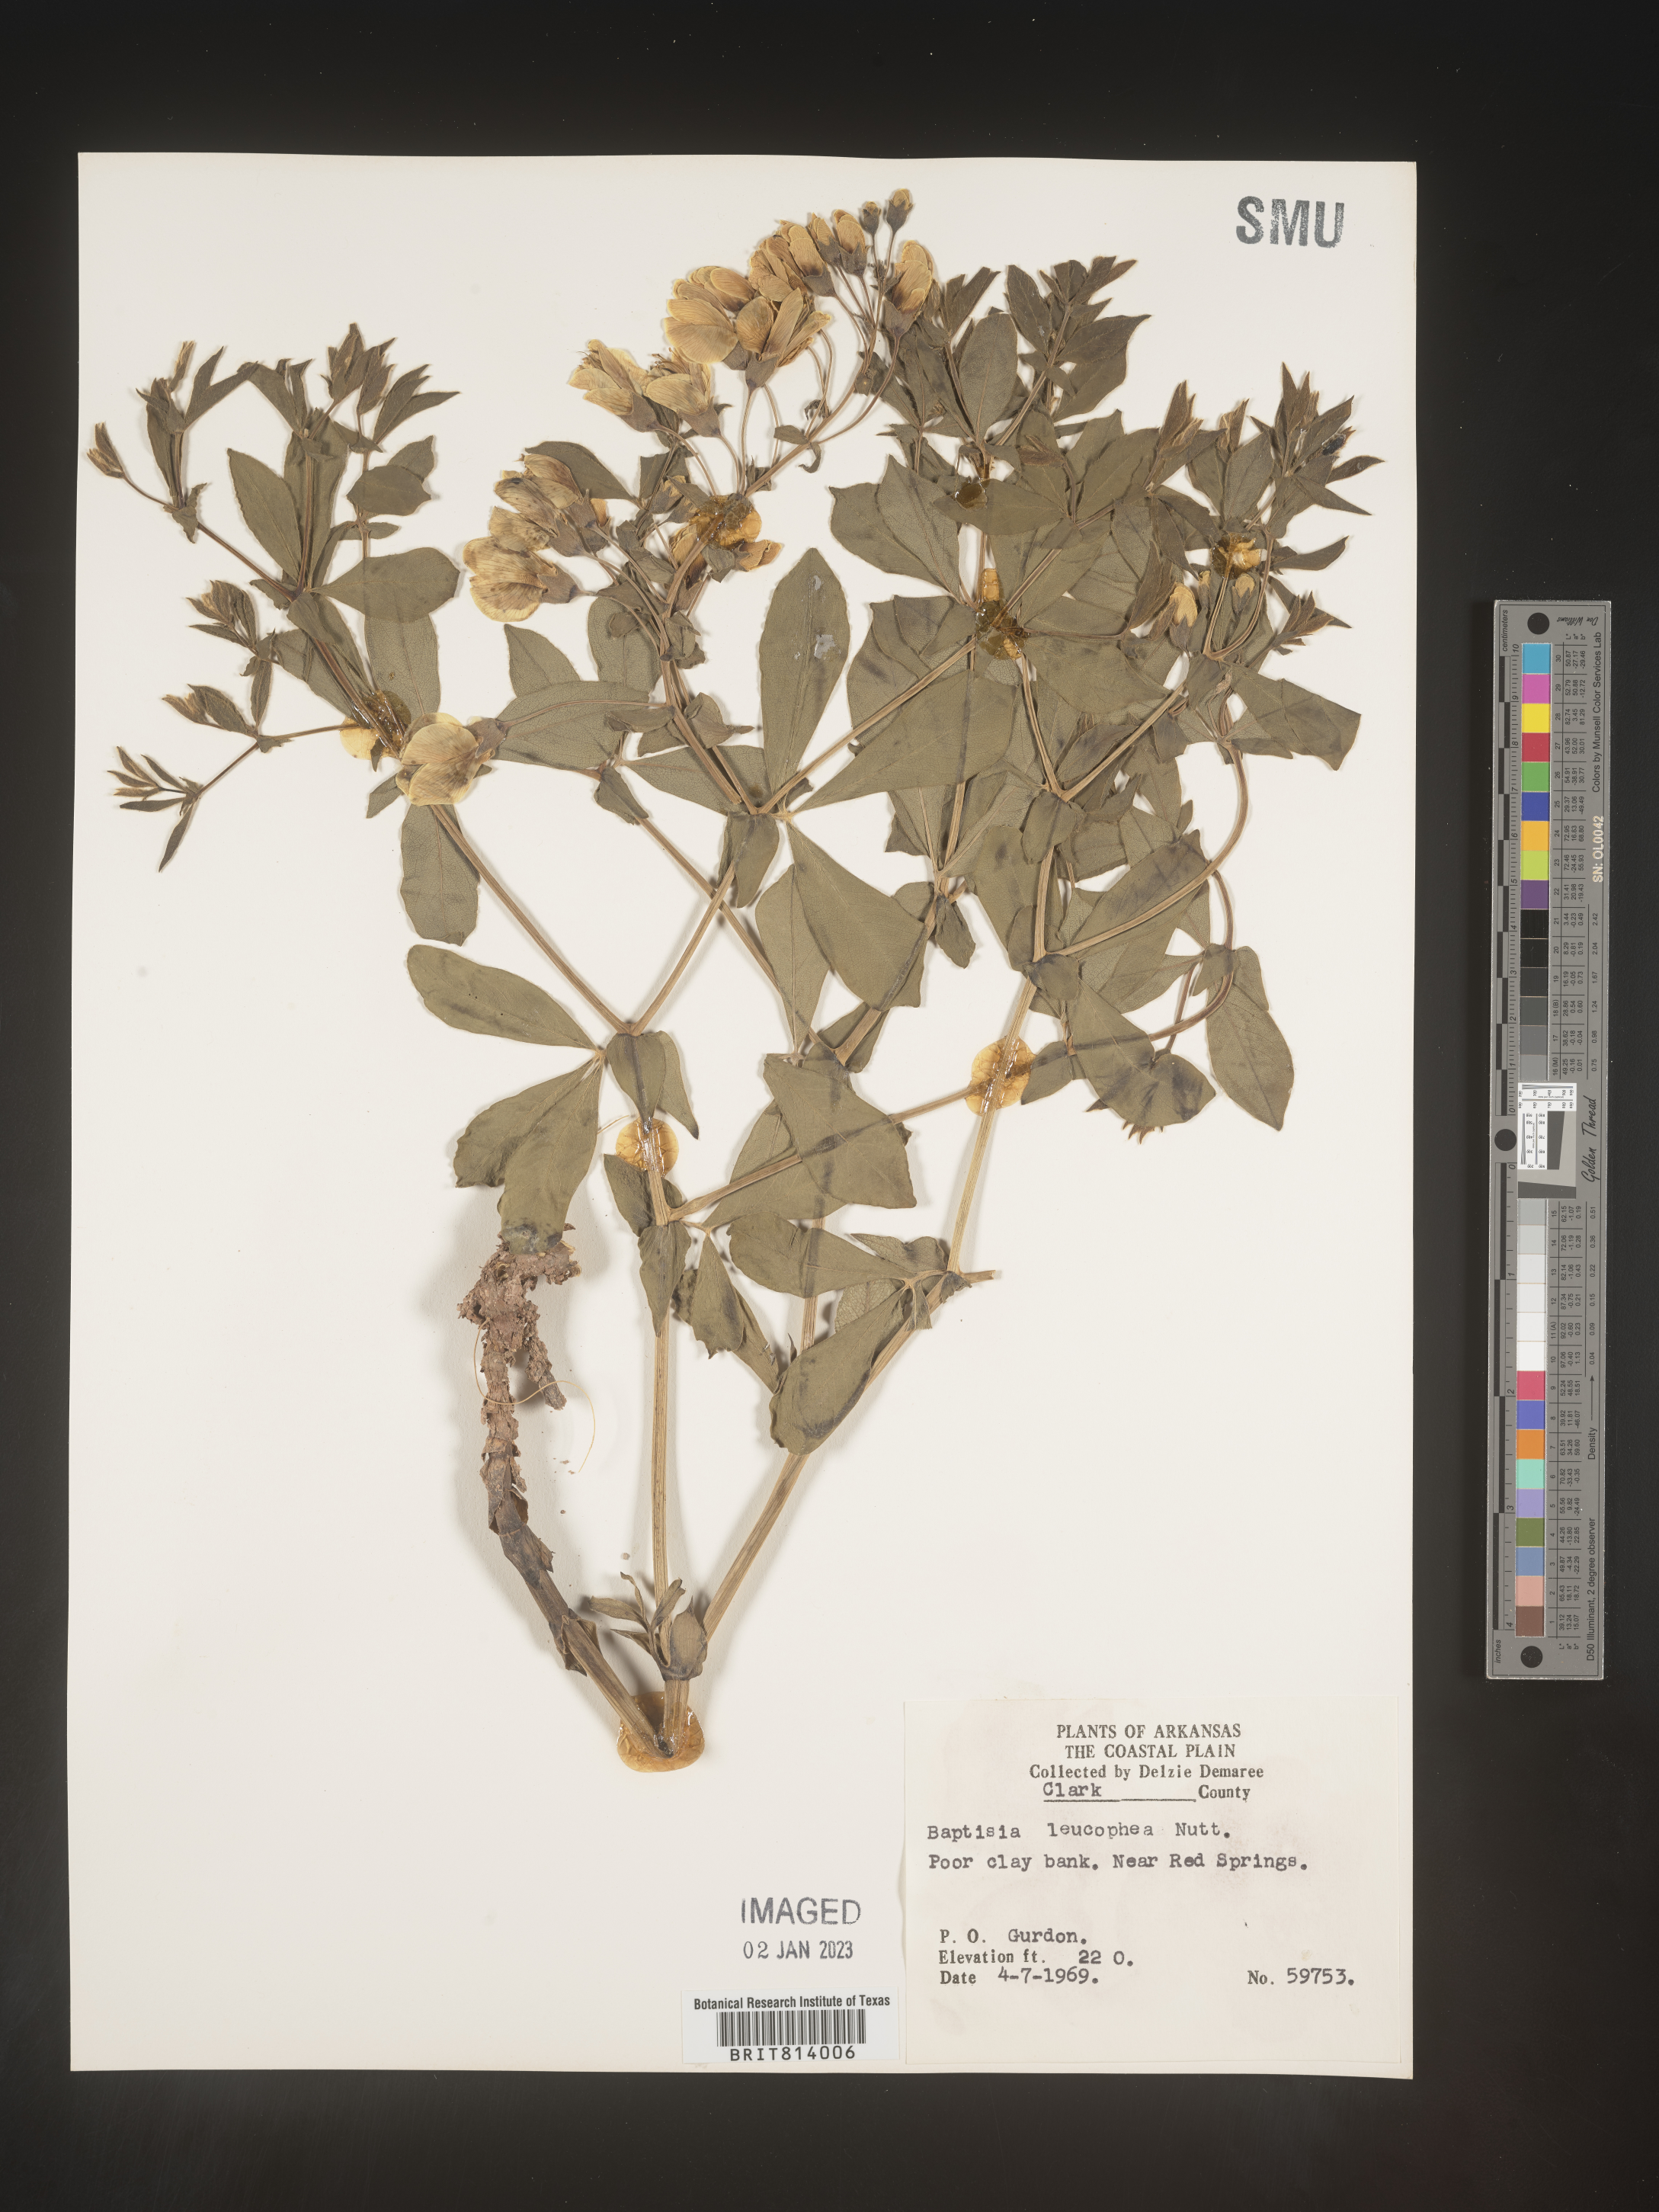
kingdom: Plantae
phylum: Tracheophyta
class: Magnoliopsida
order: Fabales
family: Fabaceae
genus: Baptisia
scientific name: Baptisia bracteata
